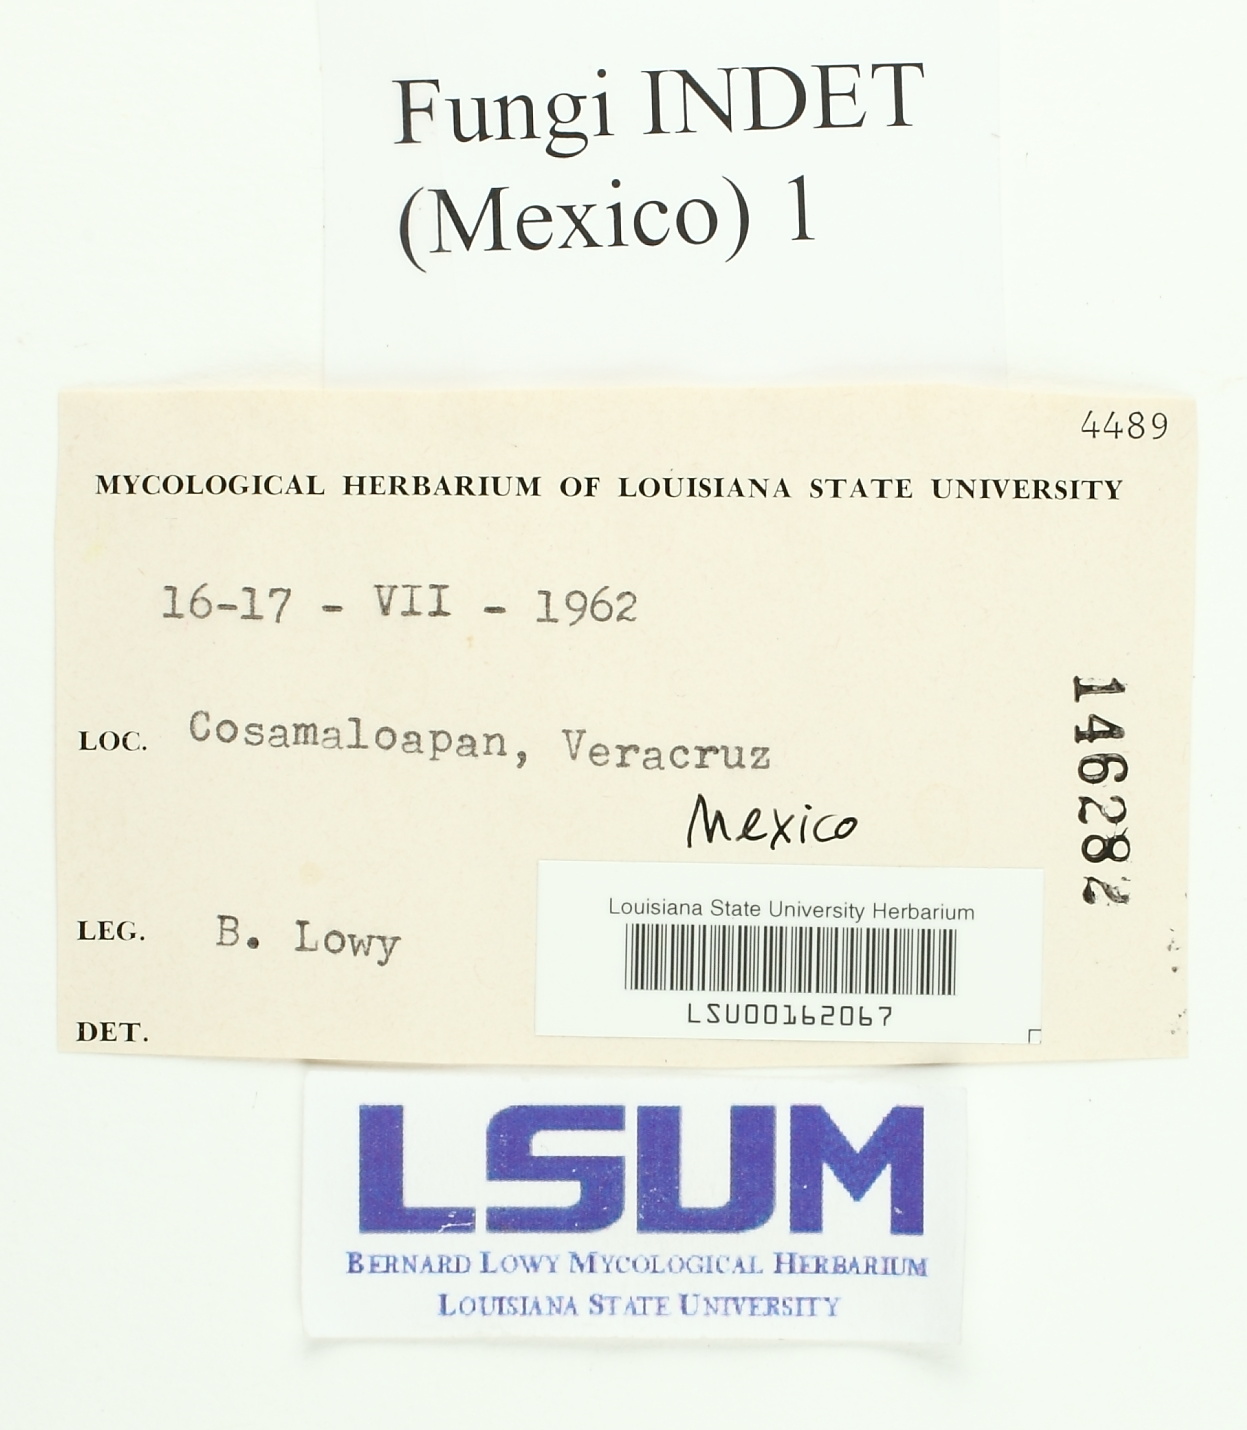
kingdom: Fungi
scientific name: Fungi
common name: Fungi
